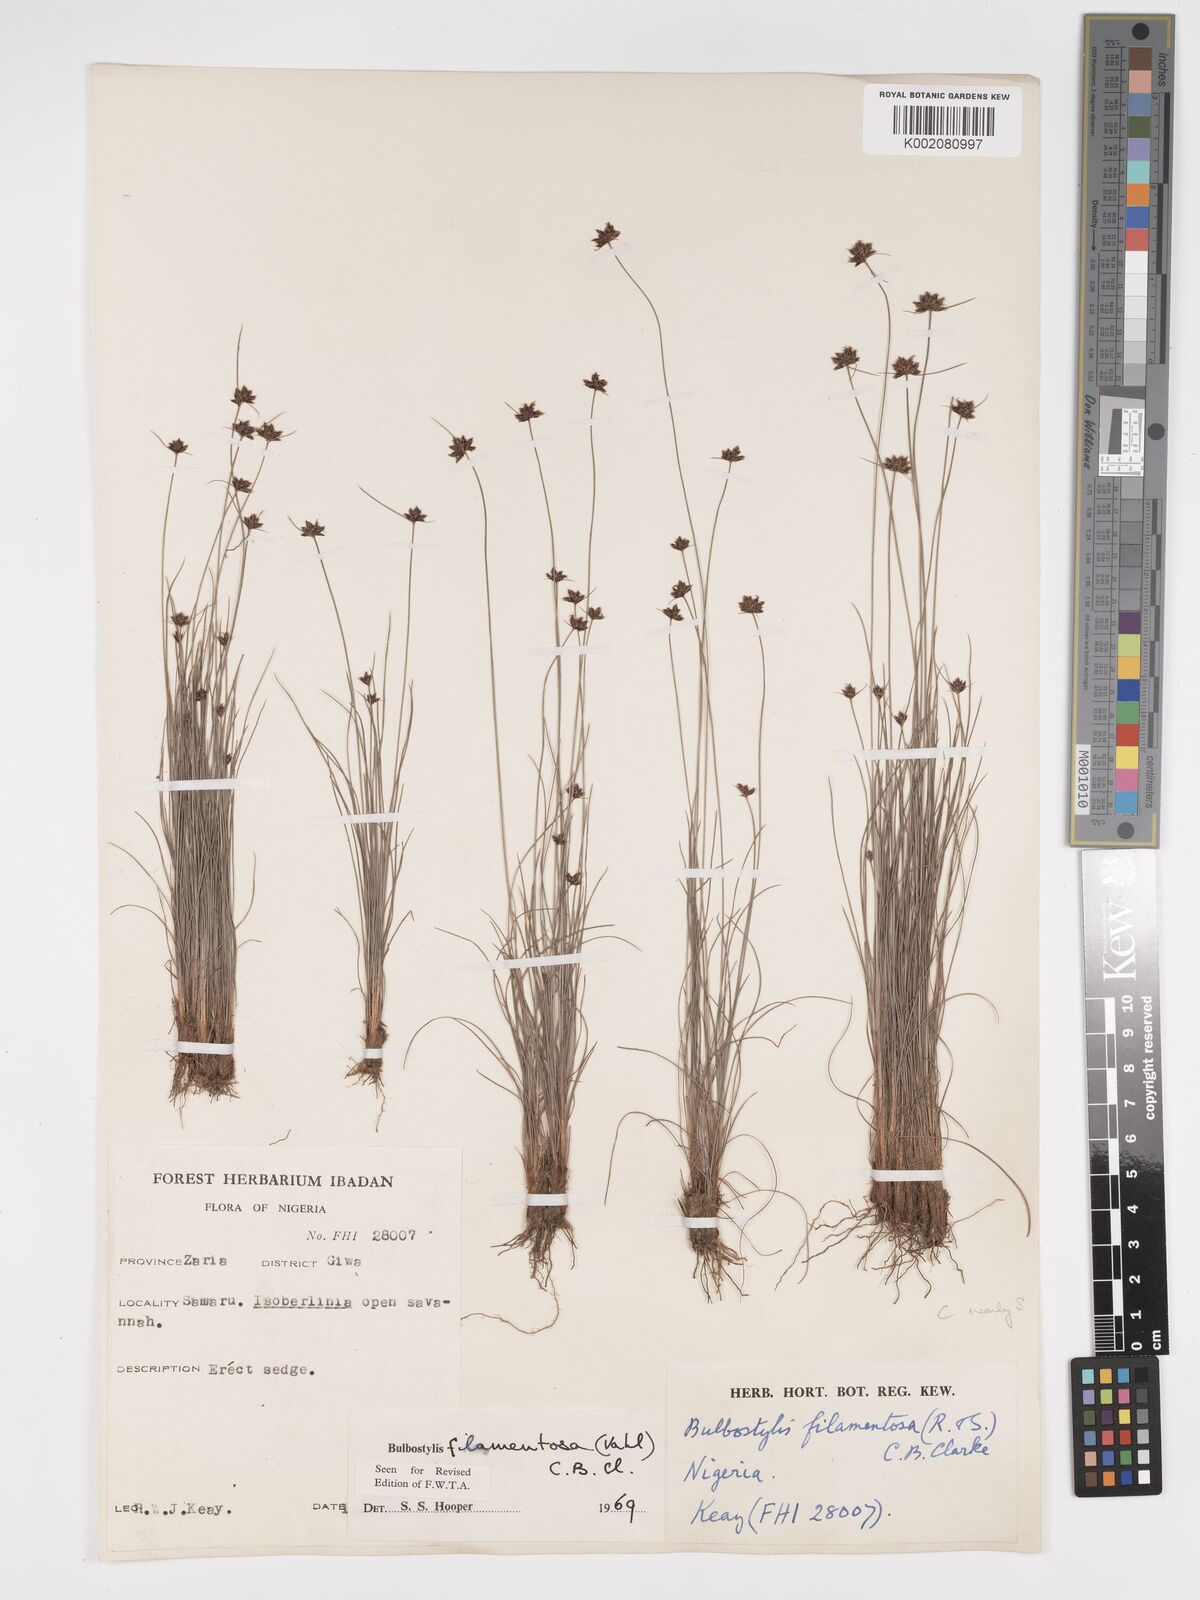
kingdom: Plantae
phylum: Tracheophyta
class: Liliopsida
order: Poales
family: Cyperaceae
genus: Bulbostylis
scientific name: Bulbostylis filamentosa
